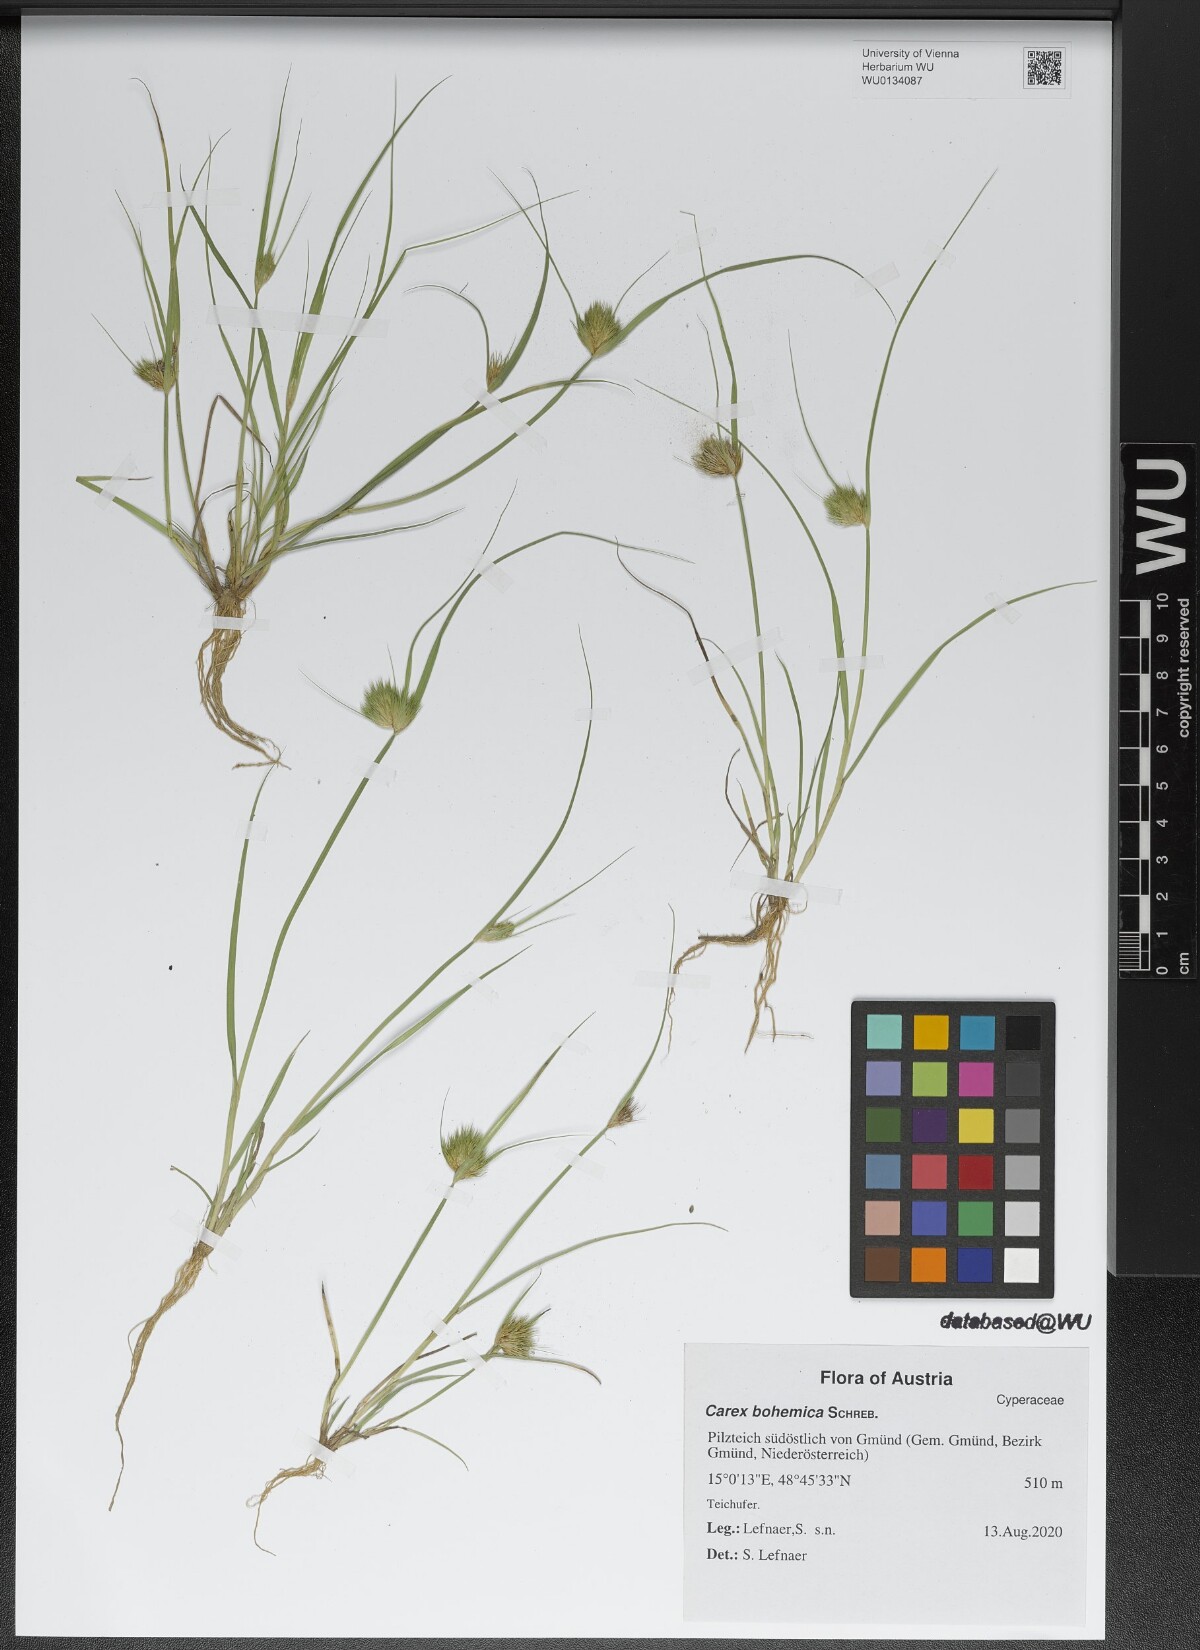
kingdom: Plantae
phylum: Tracheophyta
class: Liliopsida
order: Poales
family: Cyperaceae
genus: Carex
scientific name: Carex bohemica
